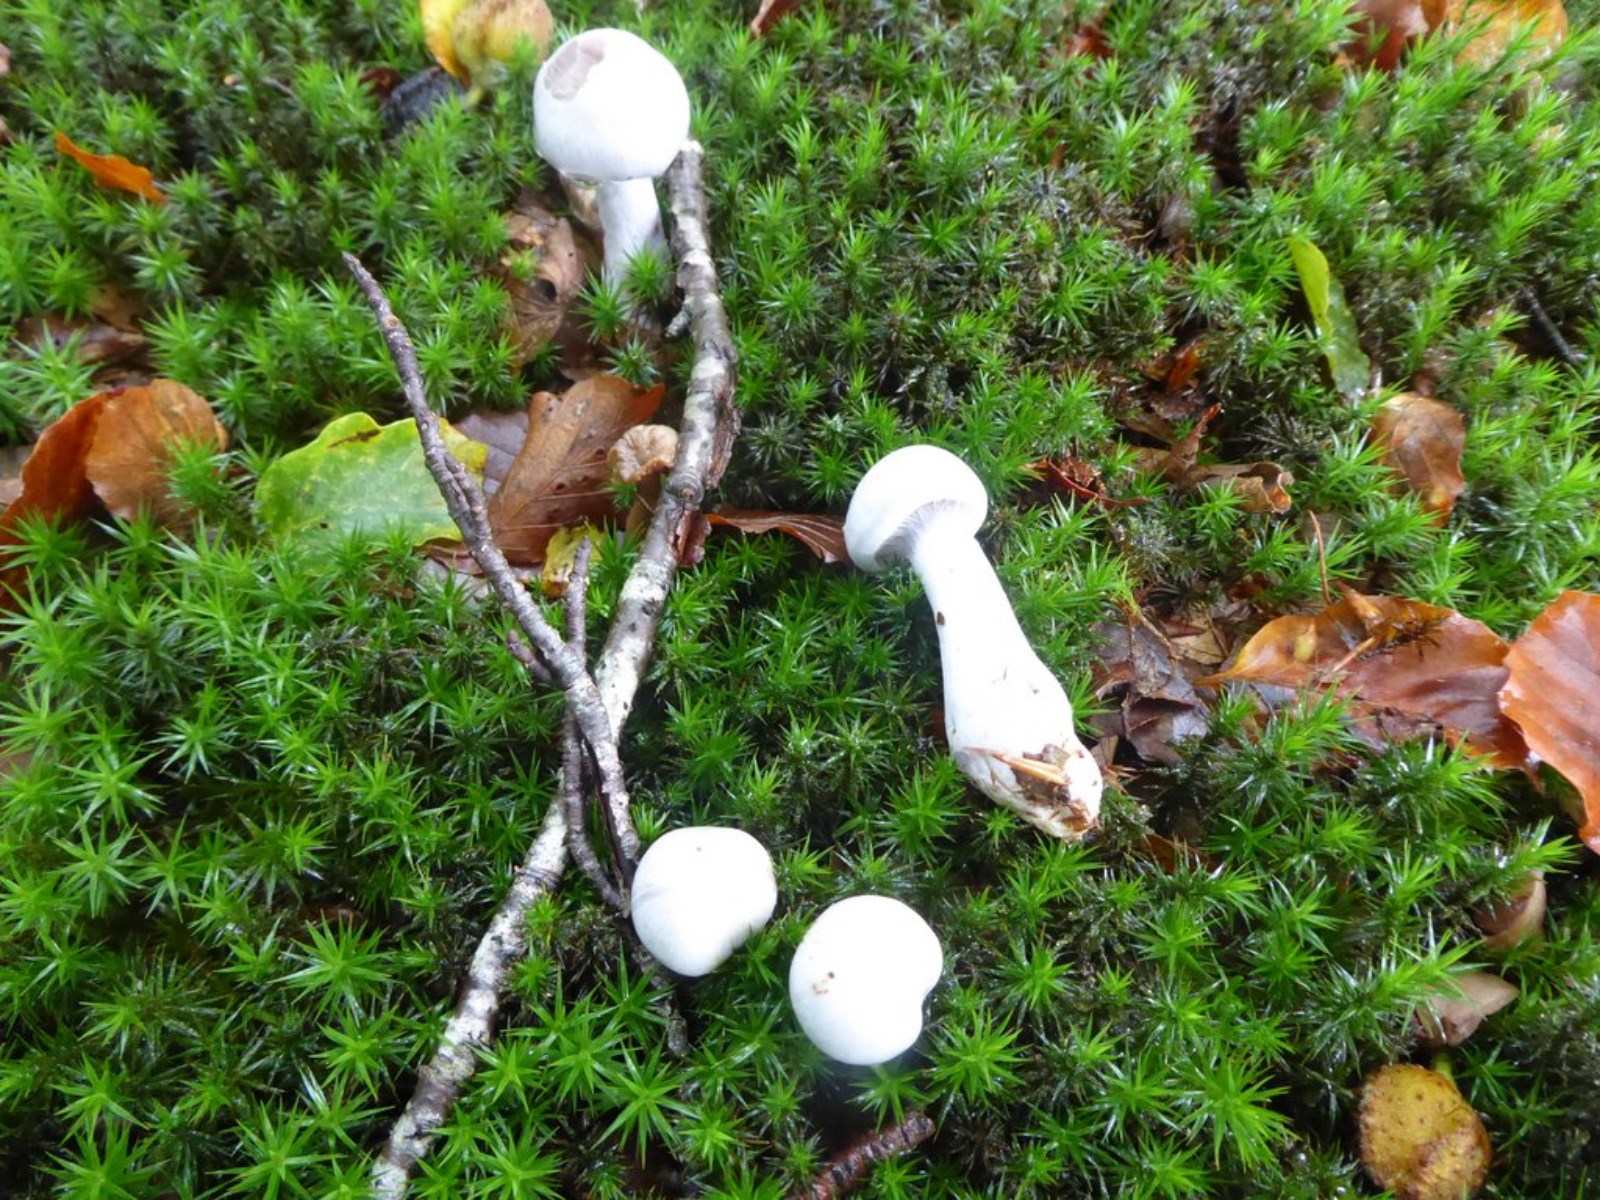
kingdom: Fungi
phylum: Basidiomycota
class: Agaricomycetes
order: Agaricales
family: Cortinariaceae
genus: Cortinarius
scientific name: Cortinarius alboviolaceus
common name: lysviolet slørhat
